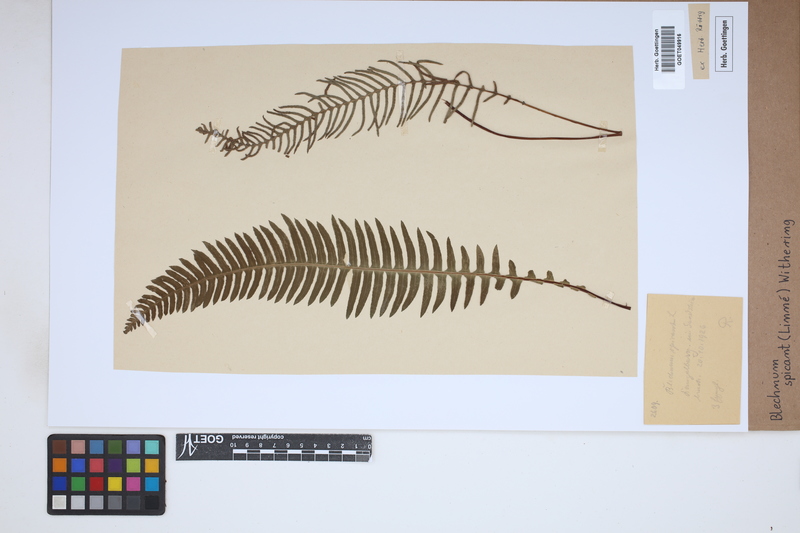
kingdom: Plantae
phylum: Tracheophyta
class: Polypodiopsida
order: Polypodiales
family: Blechnaceae
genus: Struthiopteris
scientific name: Struthiopteris spicant
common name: Deer fern
